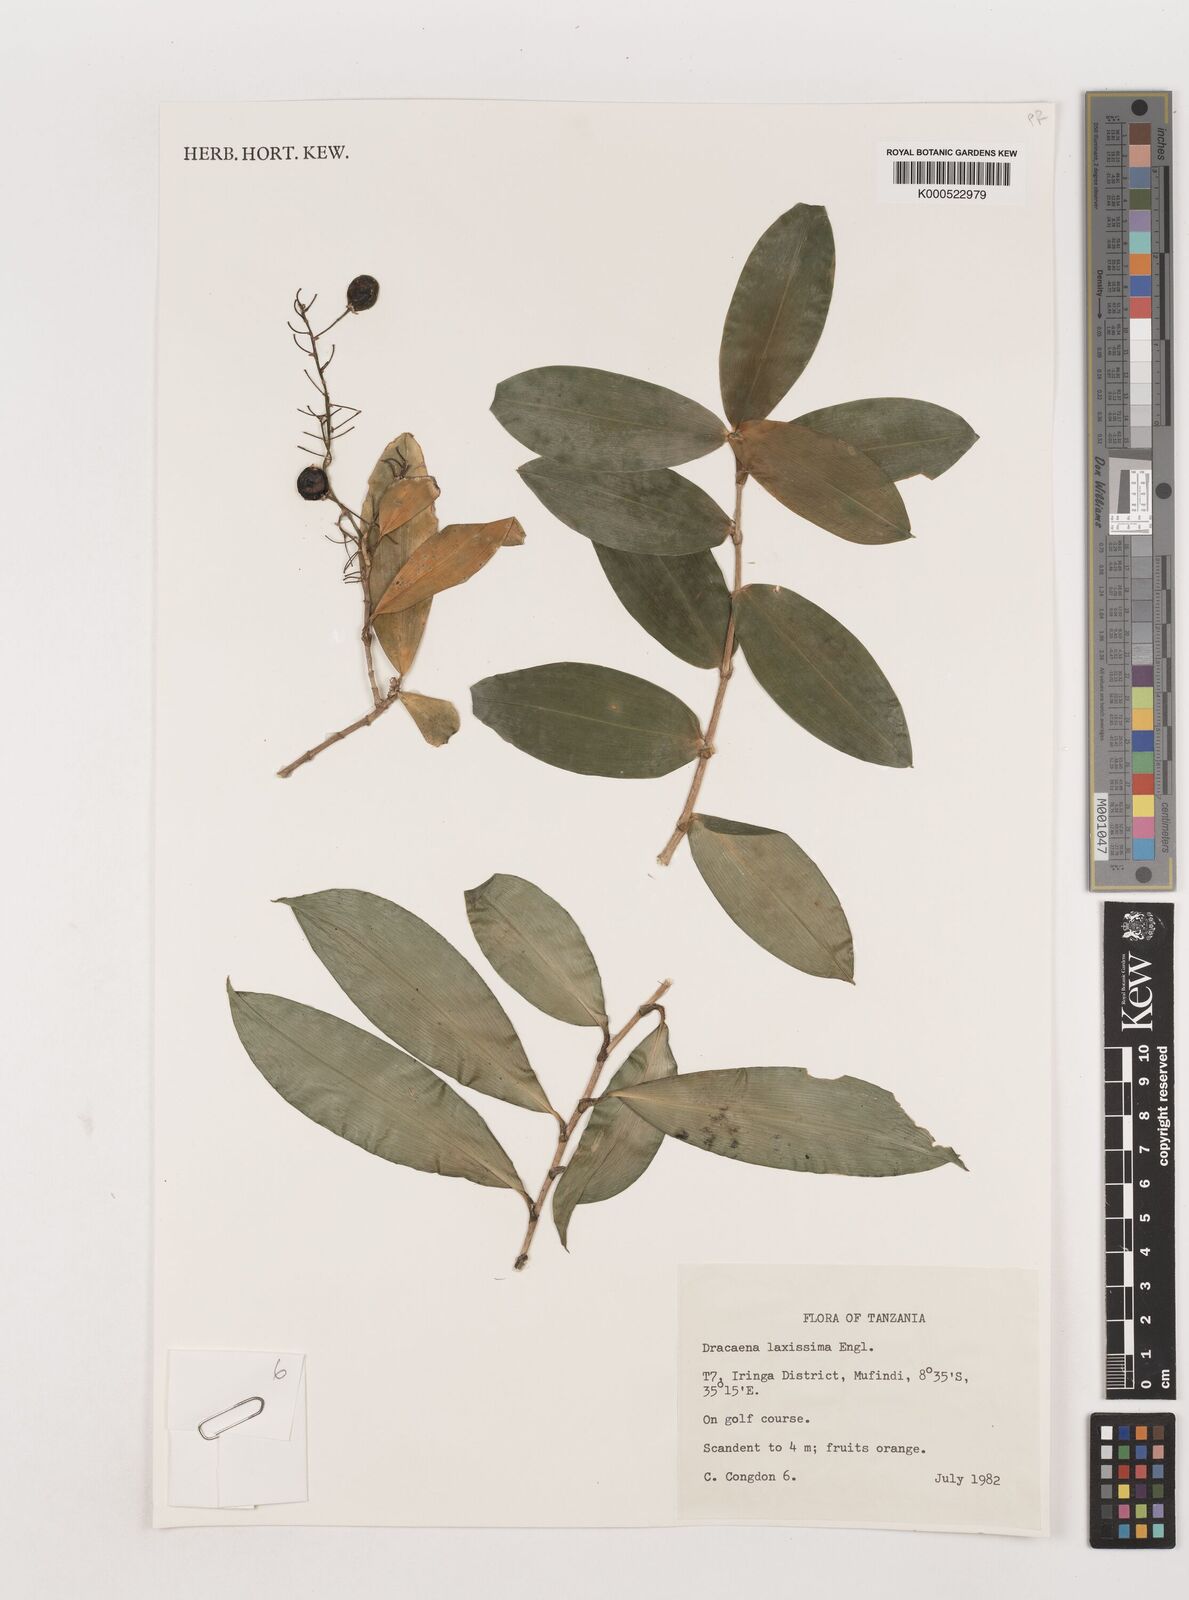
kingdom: Plantae
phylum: Tracheophyta
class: Liliopsida
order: Asparagales
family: Asparagaceae
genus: Dracaena
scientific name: Dracaena laxissima
